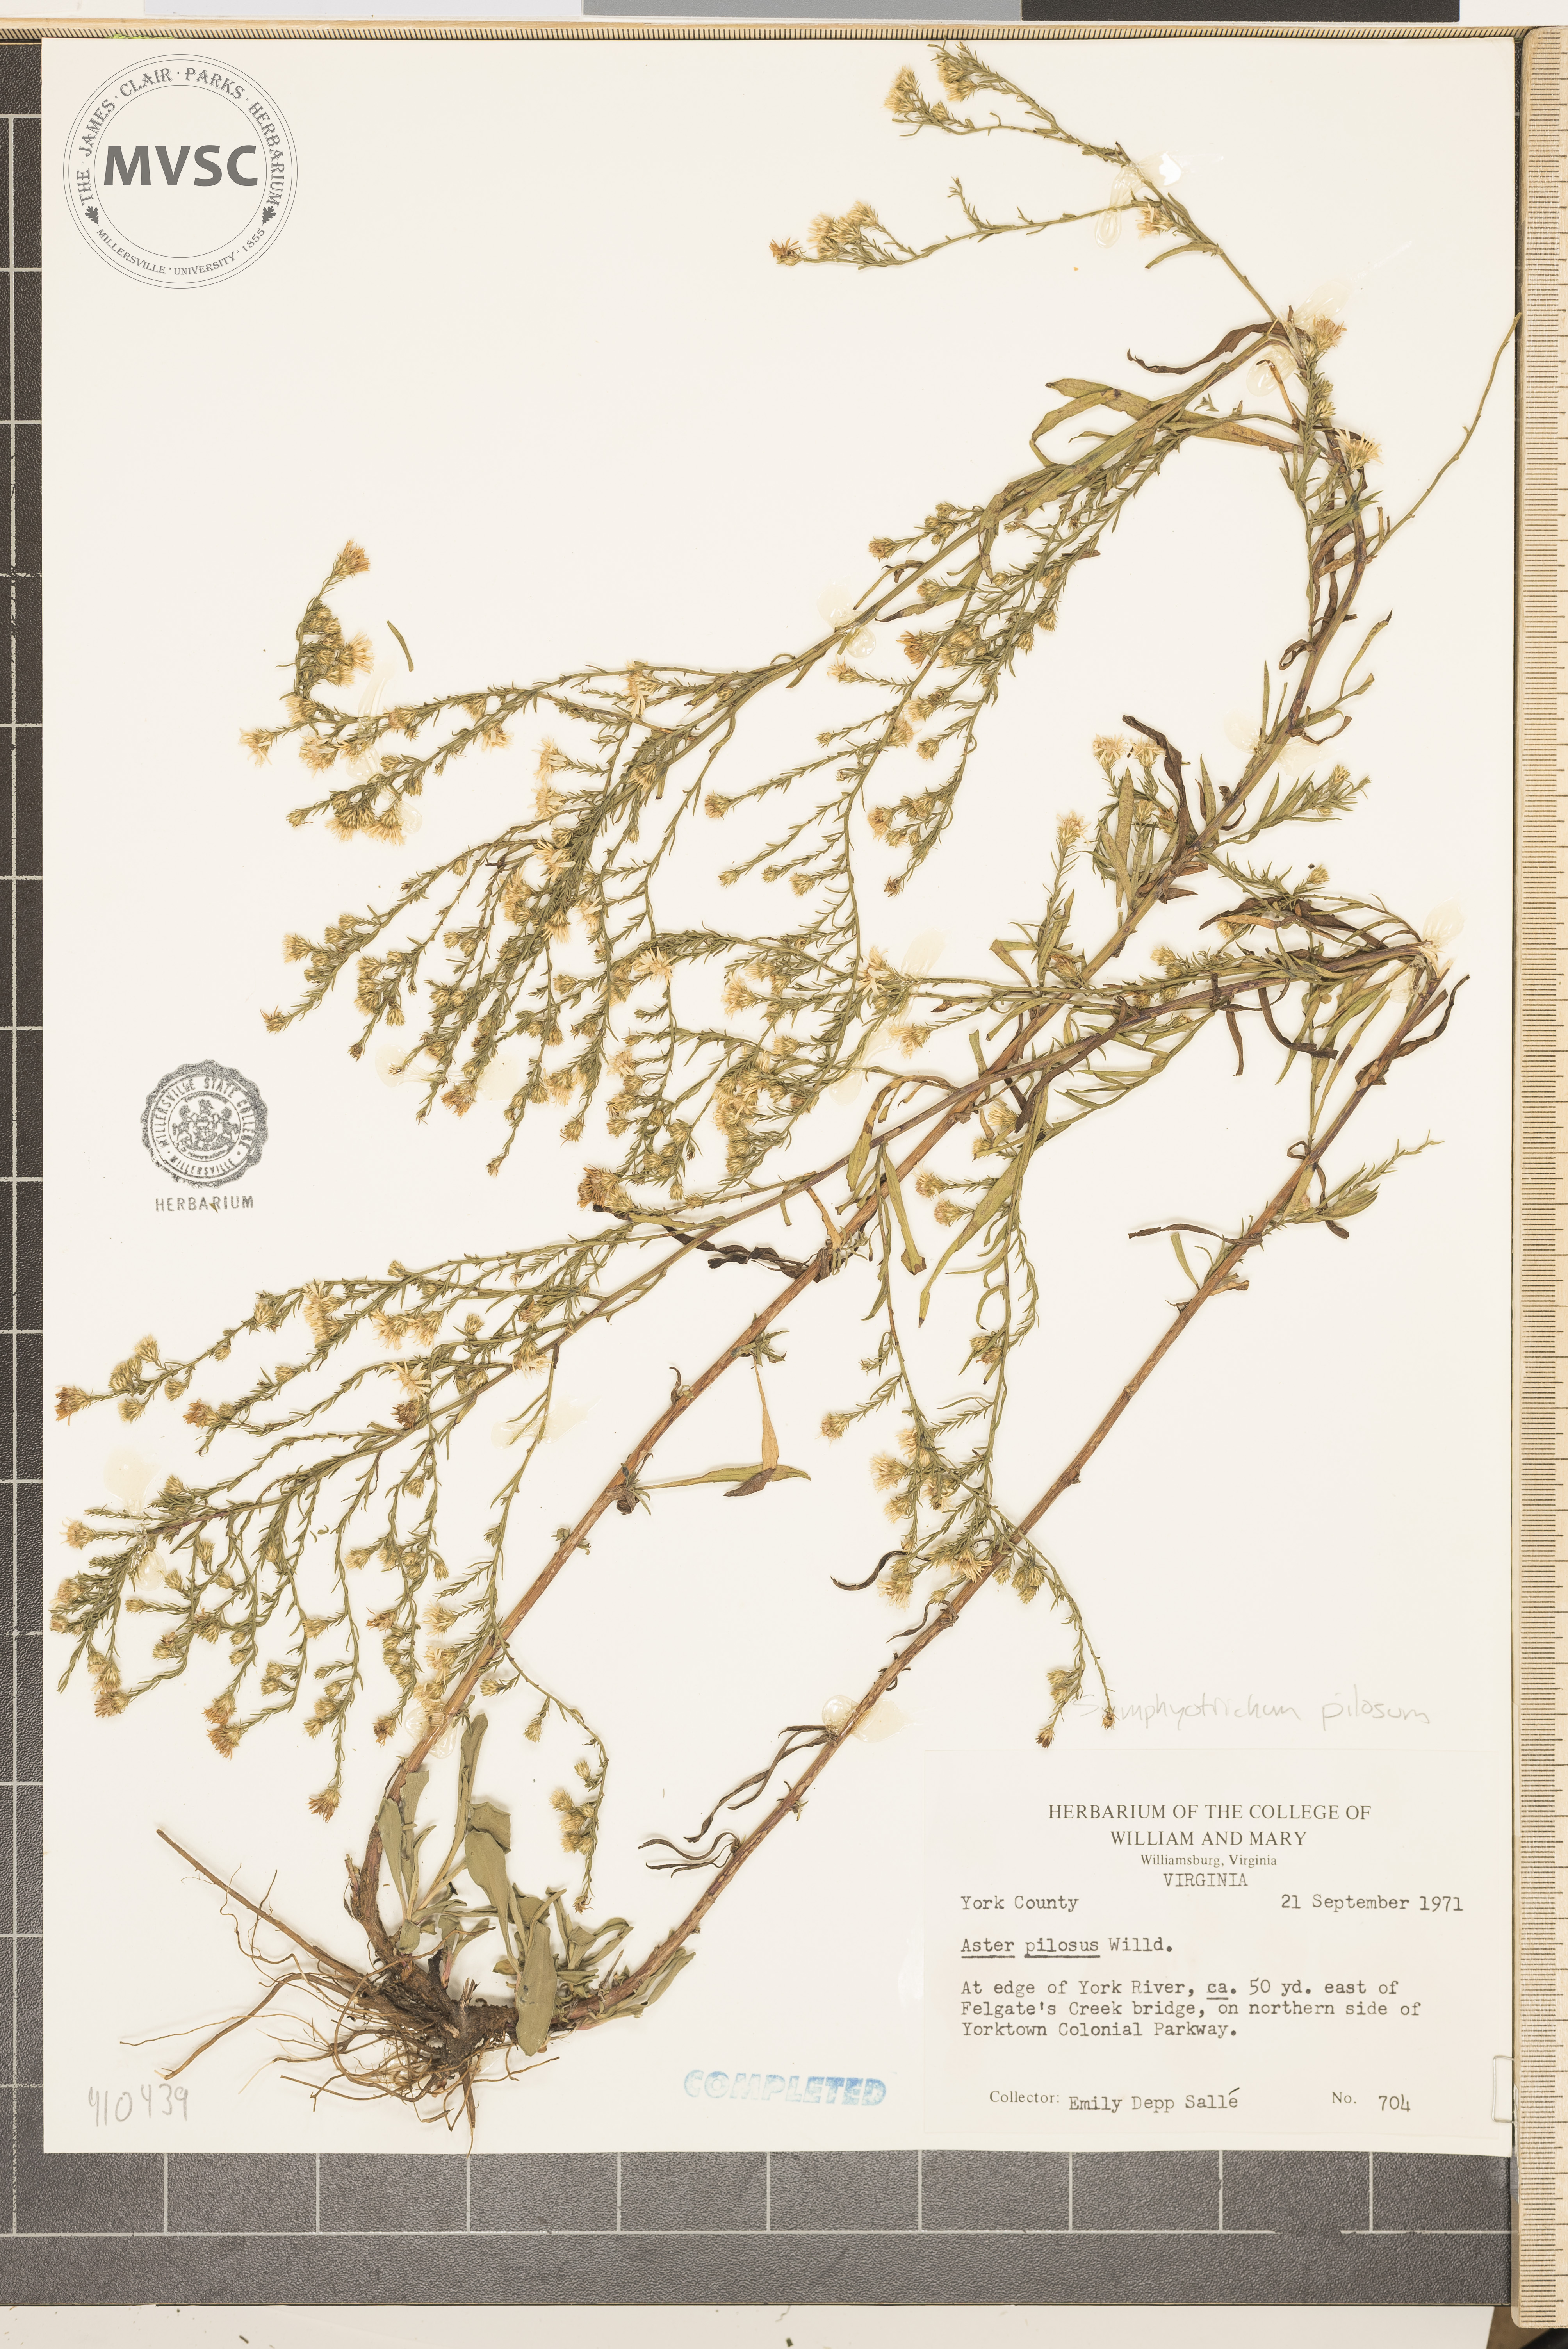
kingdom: Plantae
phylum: Tracheophyta
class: Magnoliopsida
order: Asterales
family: Asteraceae
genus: Symphyotrichum
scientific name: Symphyotrichum pilosum
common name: hairy white oldfield aster
